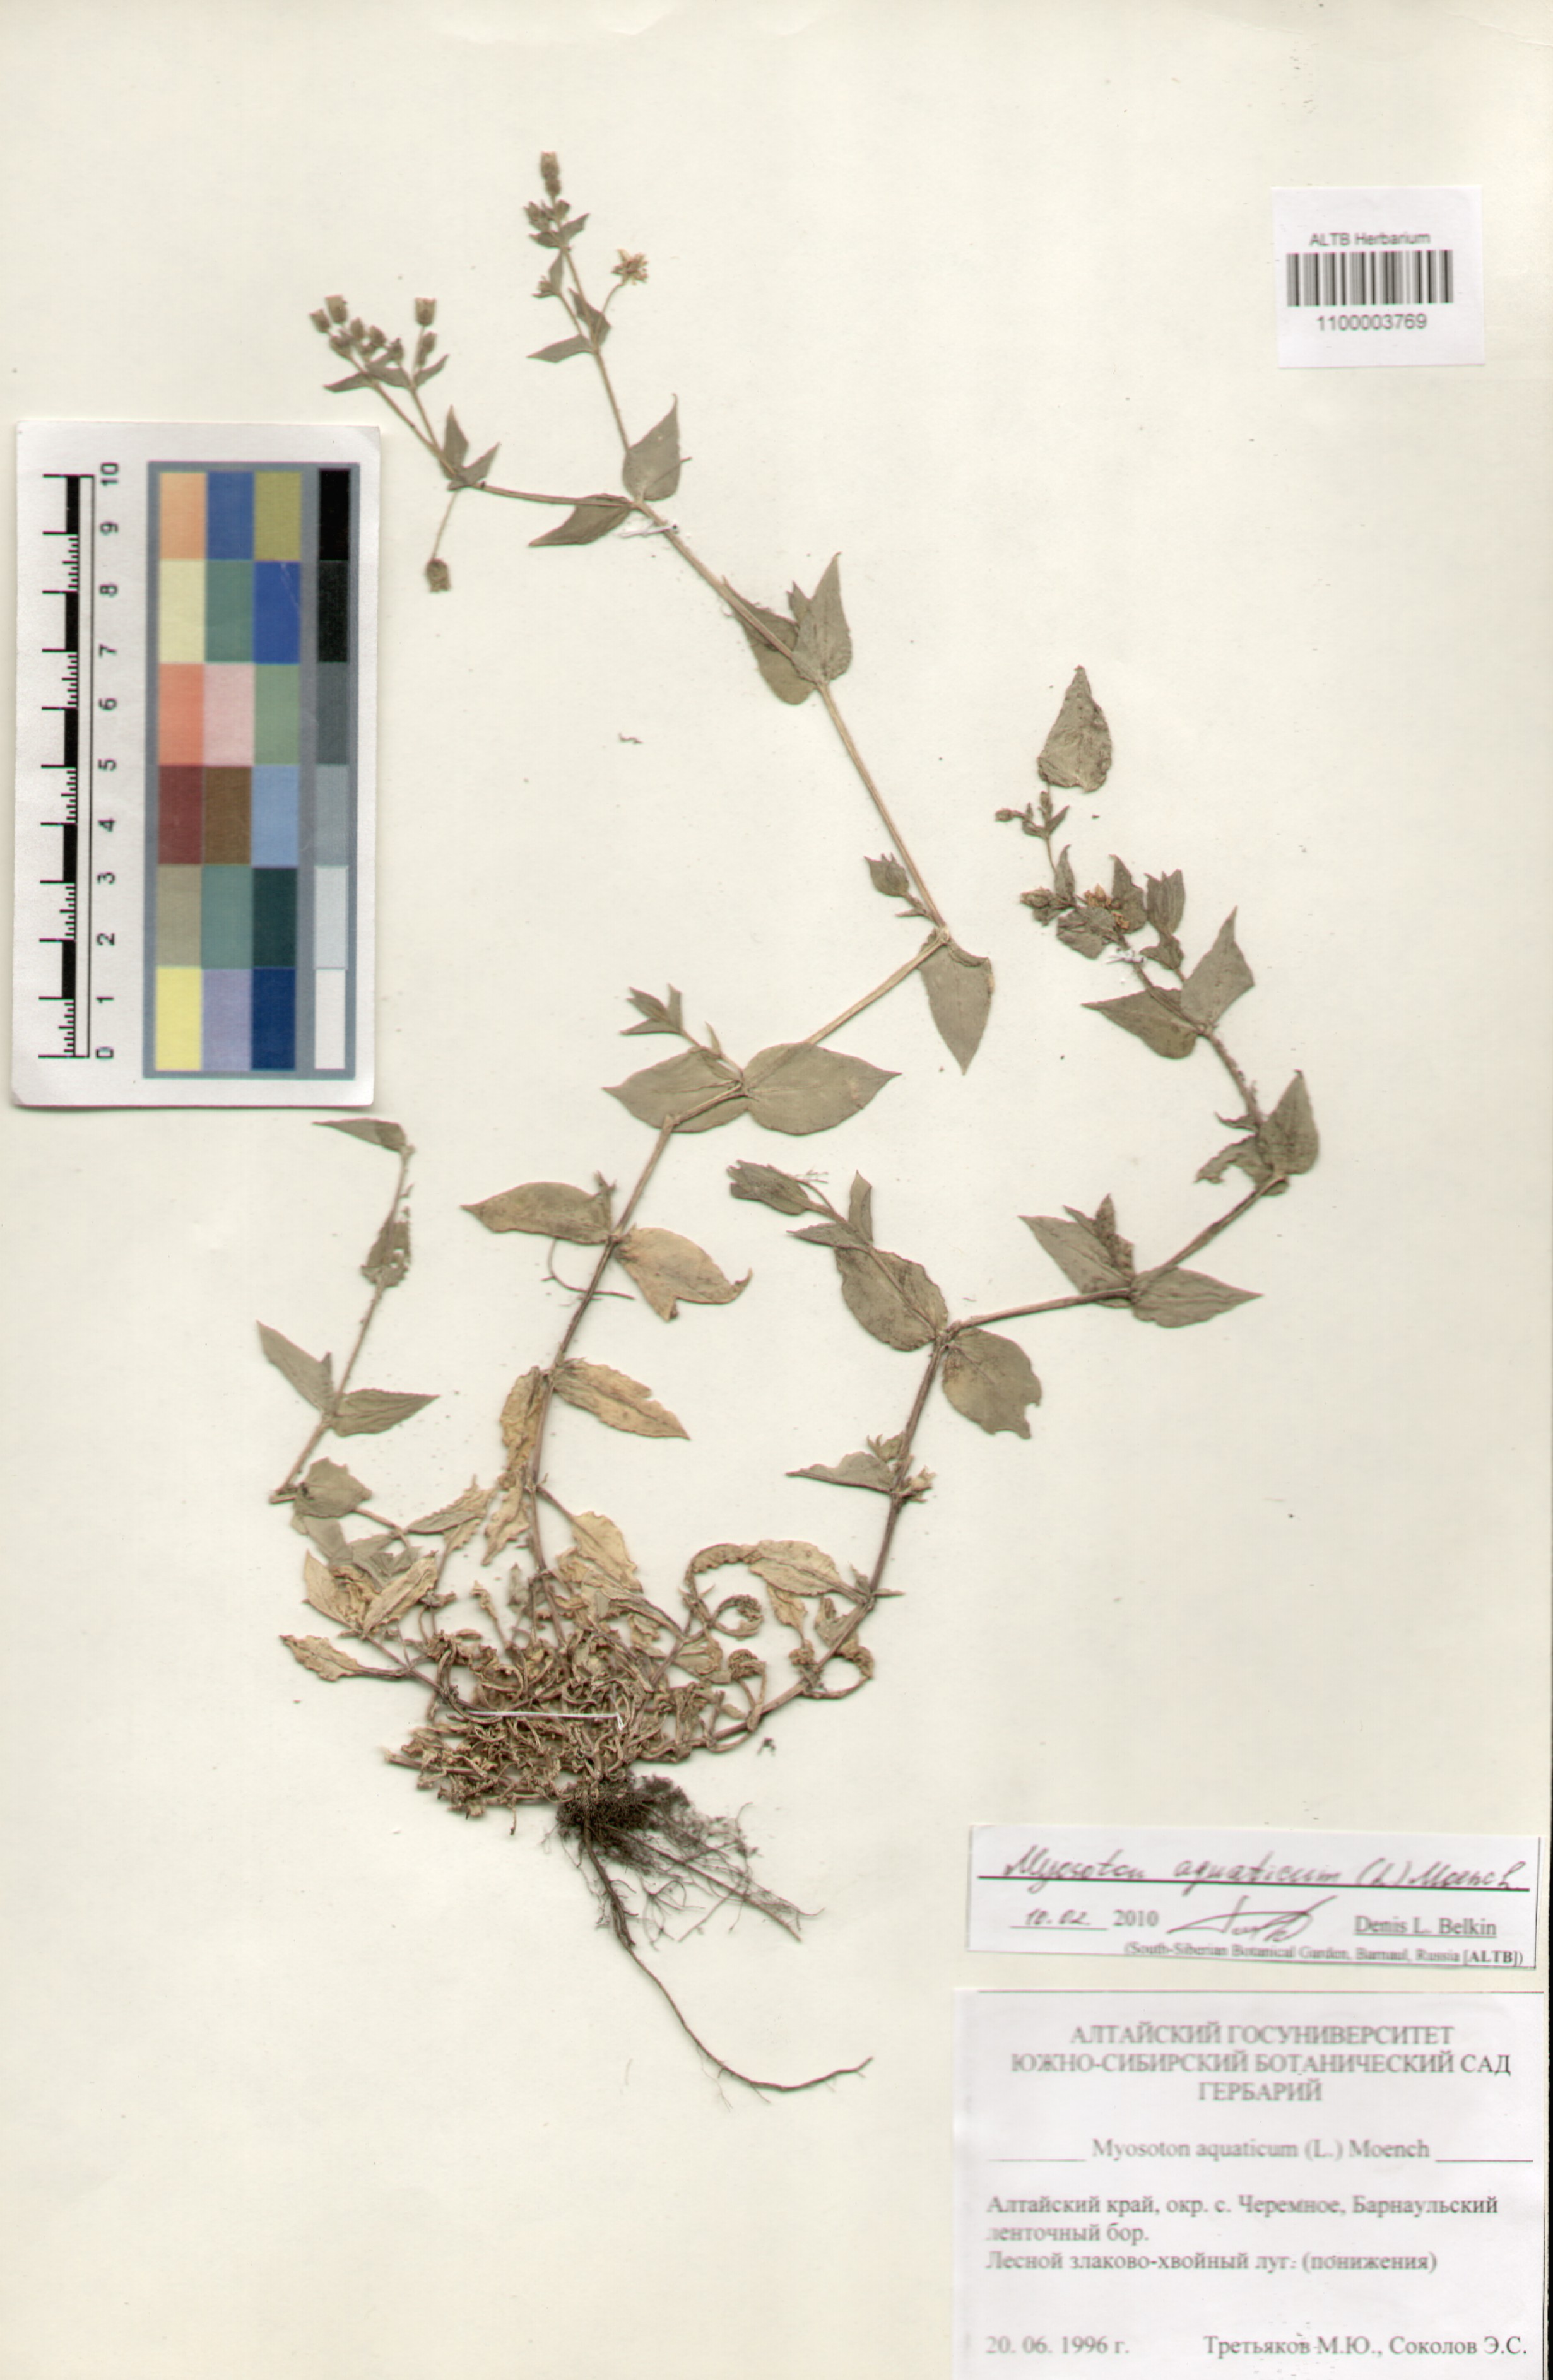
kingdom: Plantae
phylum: Tracheophyta
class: Magnoliopsida
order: Caryophyllales
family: Caryophyllaceae
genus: Stellaria
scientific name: Stellaria aquatica
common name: Water chickweed
